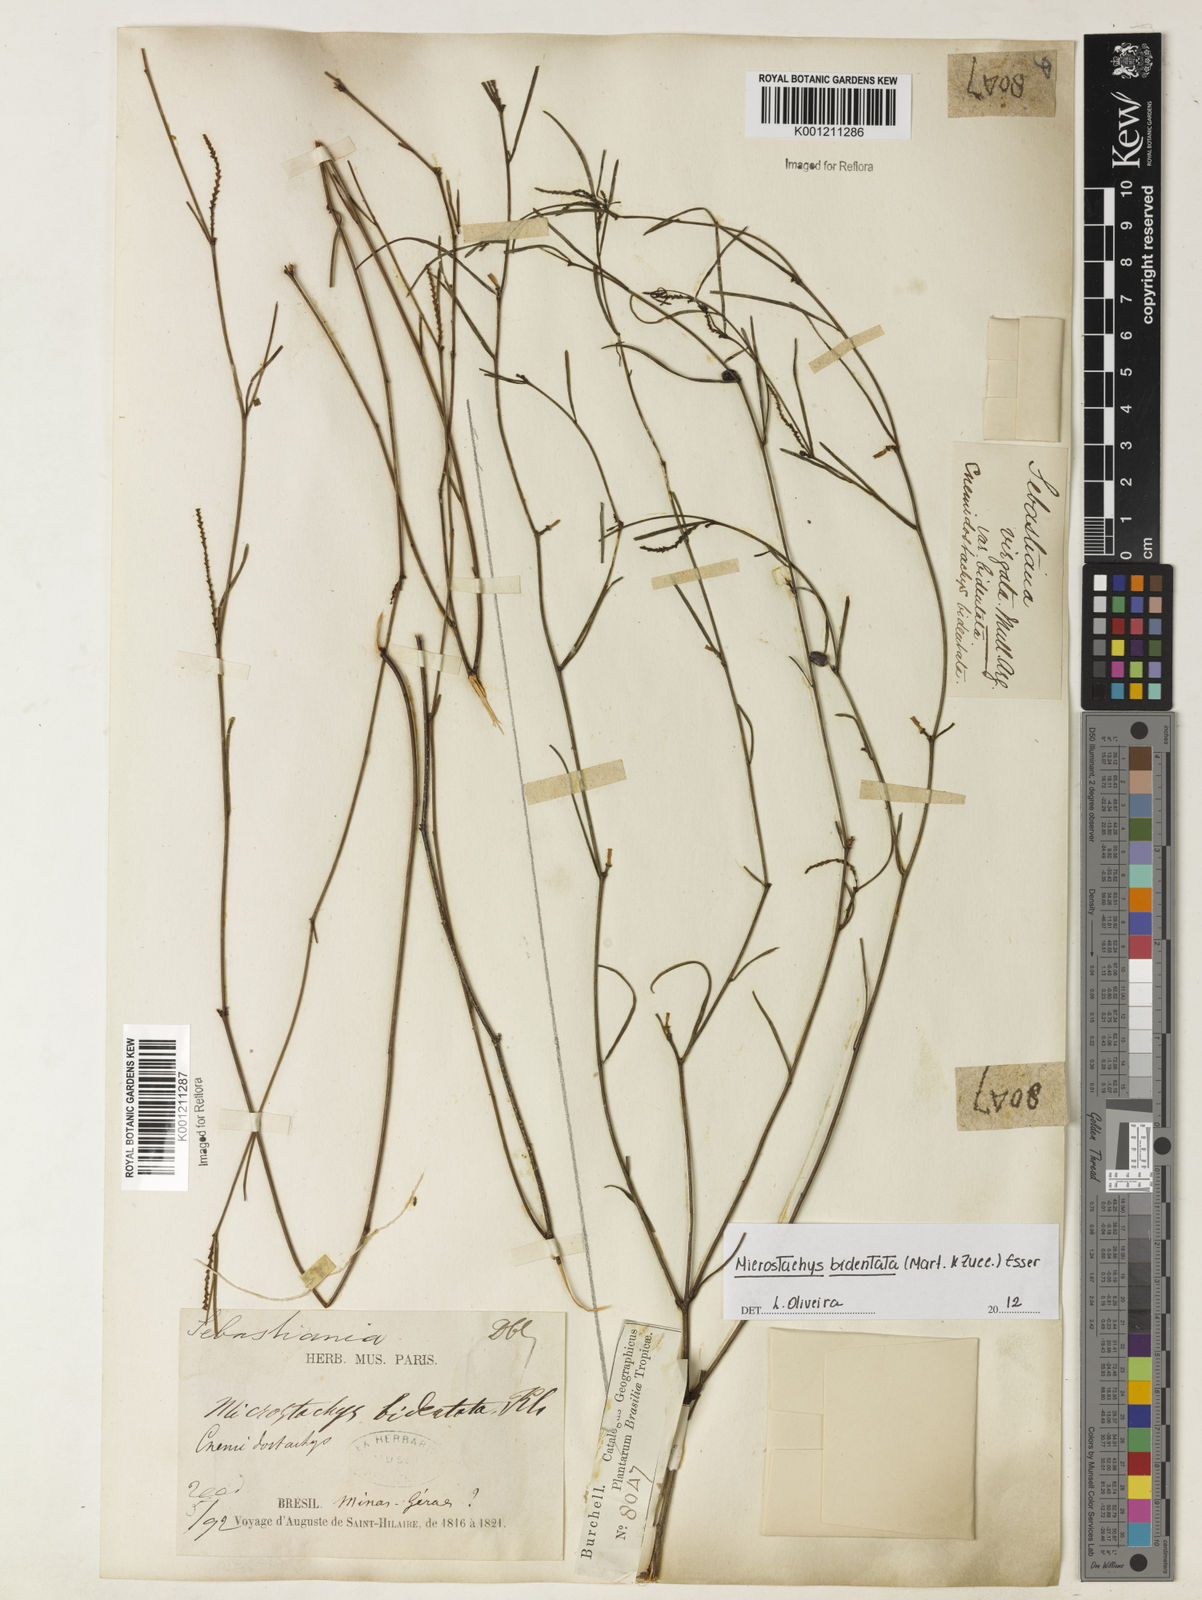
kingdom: Plantae
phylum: Tracheophyta
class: Magnoliopsida
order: Malpighiales
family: Euphorbiaceae
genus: Microstachys
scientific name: Microstachys bidentata
